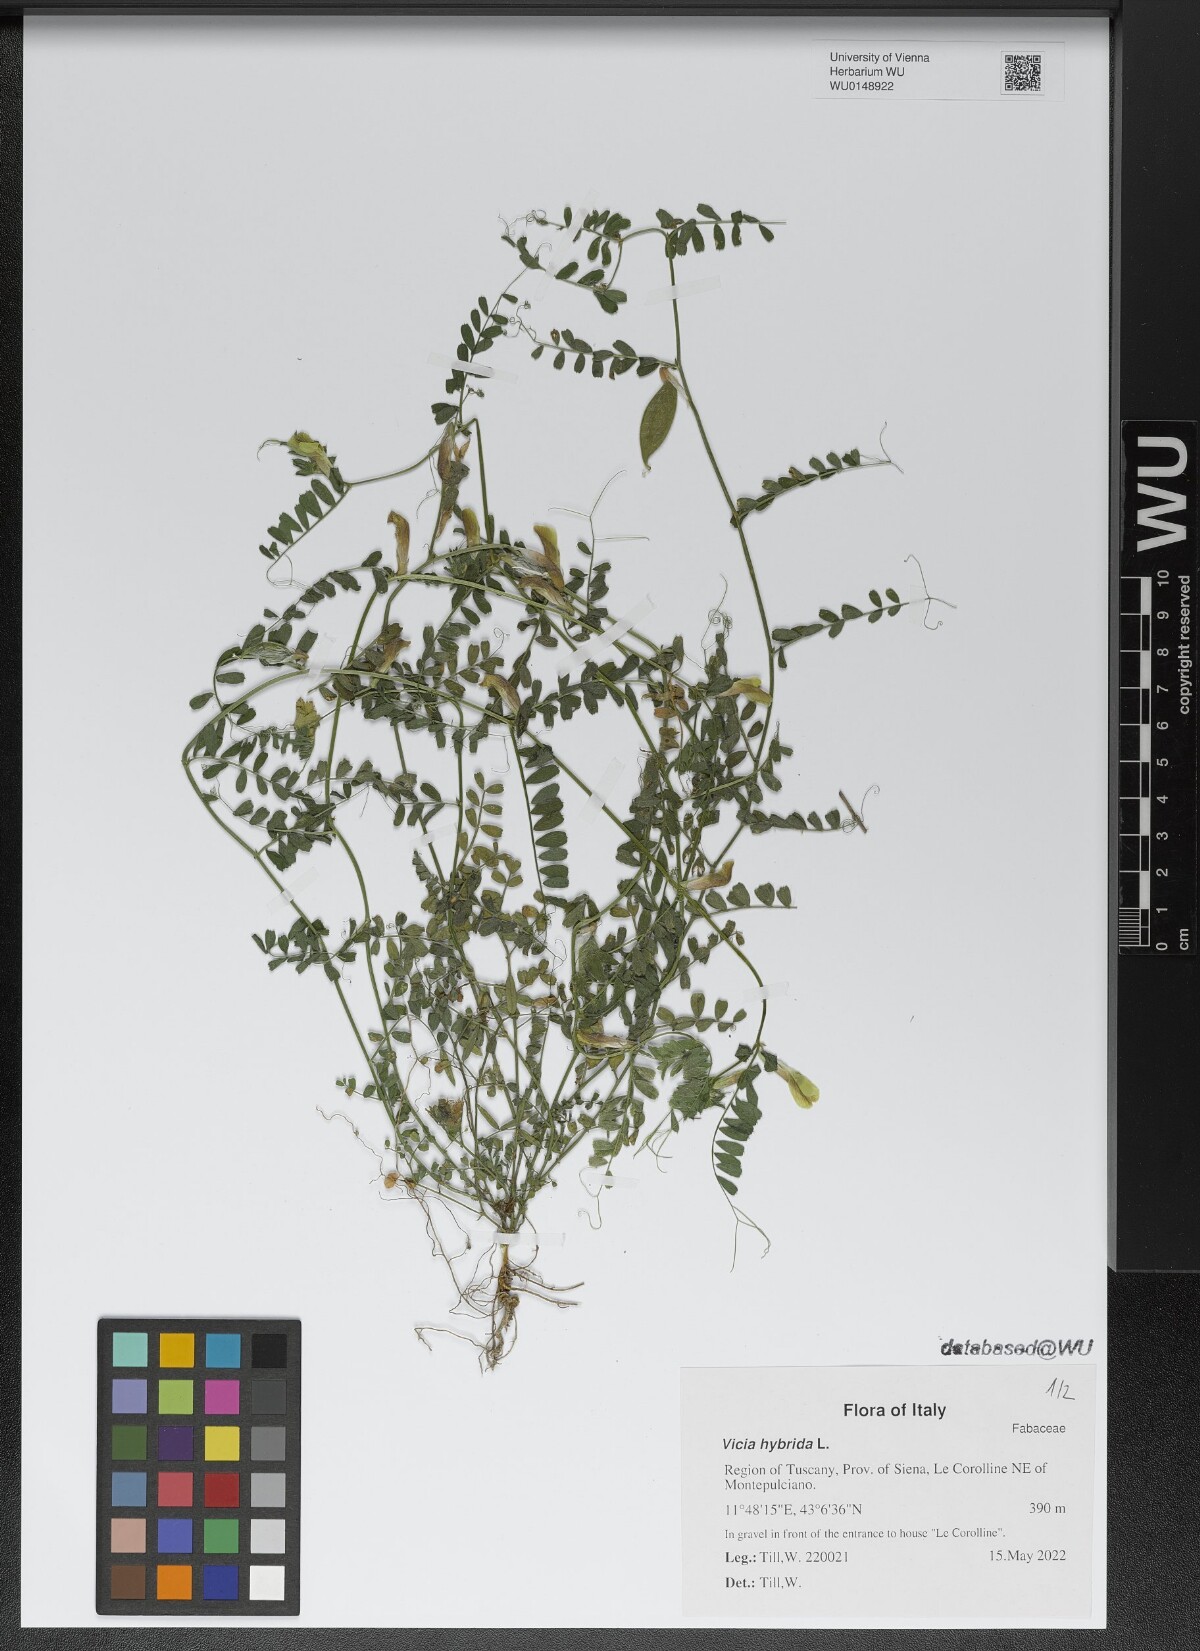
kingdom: Plantae
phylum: Tracheophyta
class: Magnoliopsida
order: Fabales
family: Fabaceae
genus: Vicia
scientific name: Vicia hybrida
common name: Hairy yellow vetch
